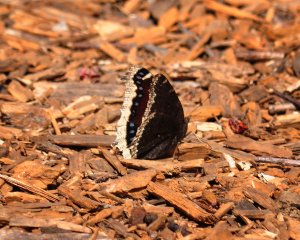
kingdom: Animalia
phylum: Arthropoda
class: Insecta
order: Lepidoptera
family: Nymphalidae
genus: Nymphalis
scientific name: Nymphalis antiopa
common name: Mourning Cloak
